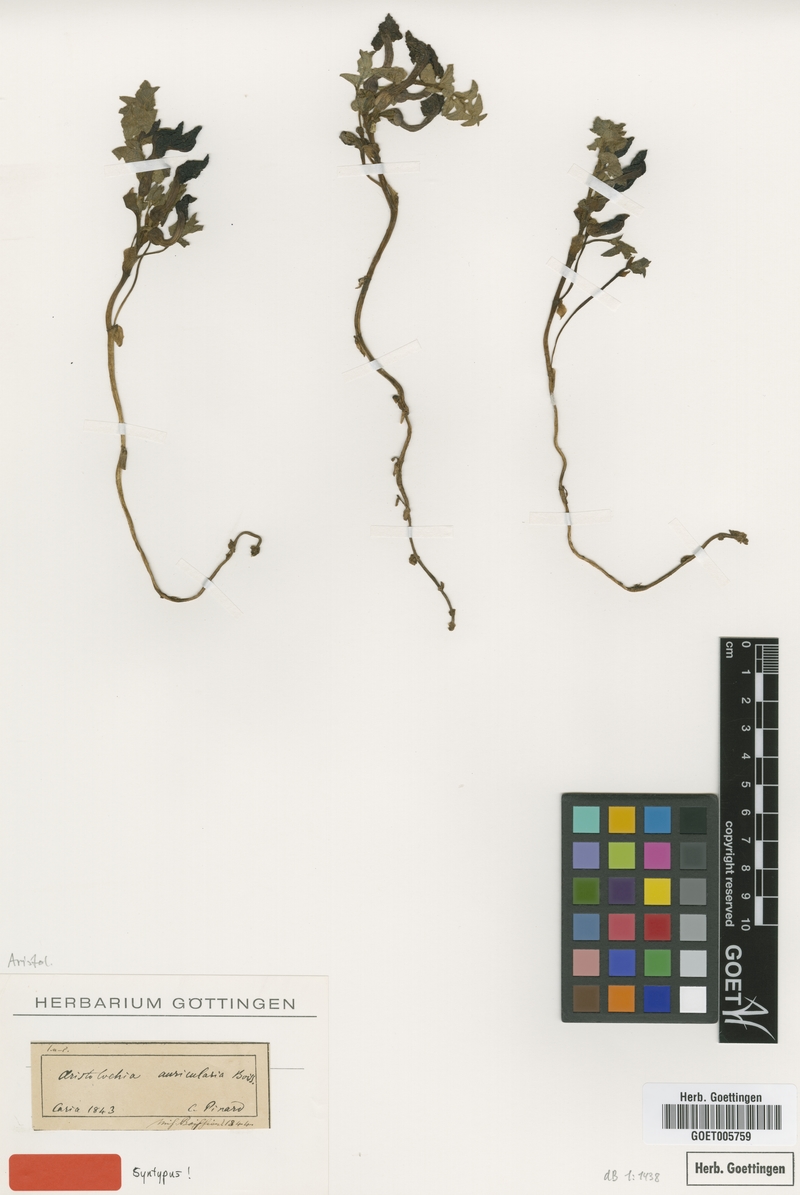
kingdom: Plantae
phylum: Tracheophyta
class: Magnoliopsida
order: Piperales
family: Aristolochiaceae
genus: Aristolochia
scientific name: Aristolochia auricularia
